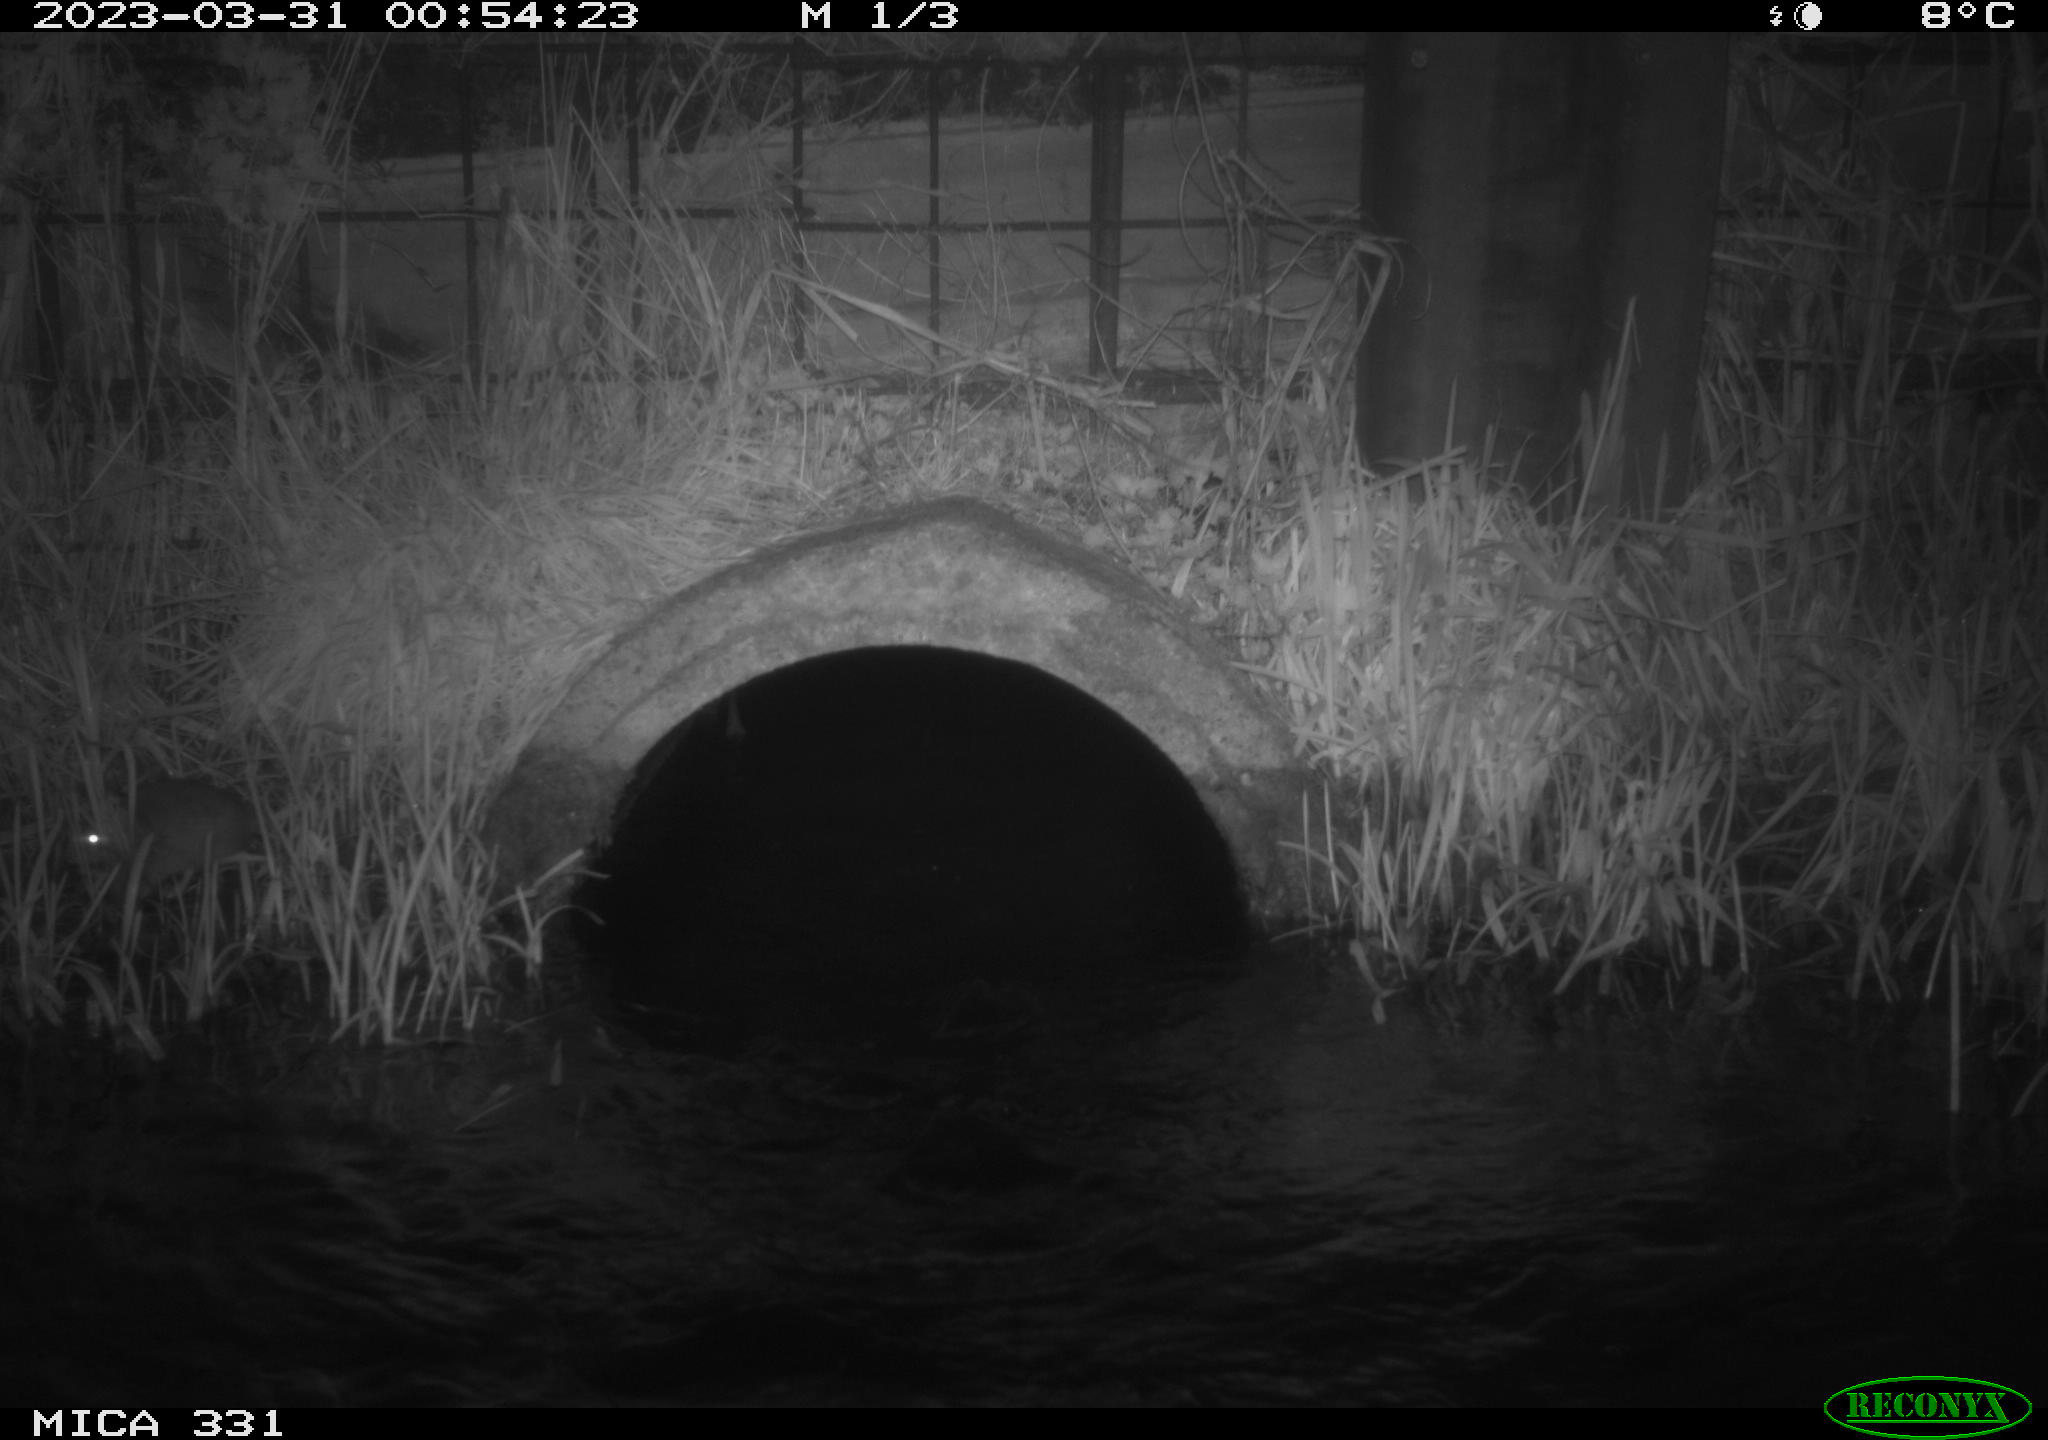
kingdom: Animalia
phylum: Chordata
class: Mammalia
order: Rodentia
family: Muridae
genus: Rattus
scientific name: Rattus norvegicus
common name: Brown rat
